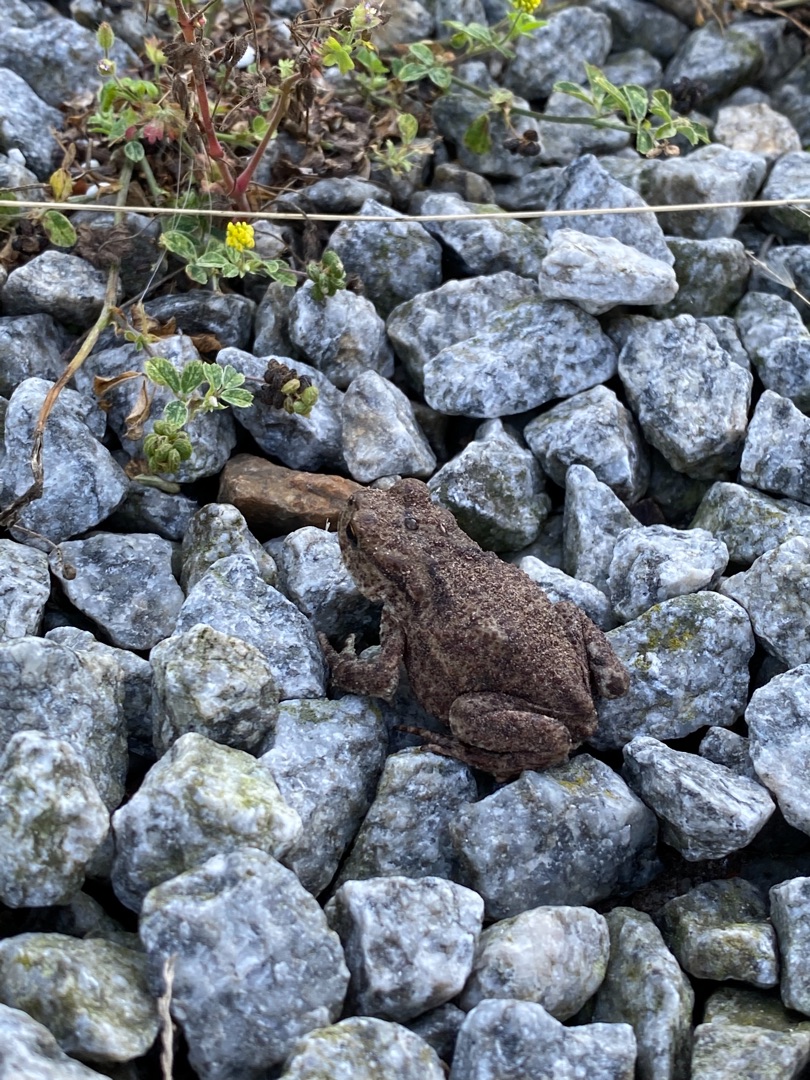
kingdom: Animalia
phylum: Chordata
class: Amphibia
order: Anura
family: Bufonidae
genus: Bufo
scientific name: Bufo bufo
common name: Skrubtudse
